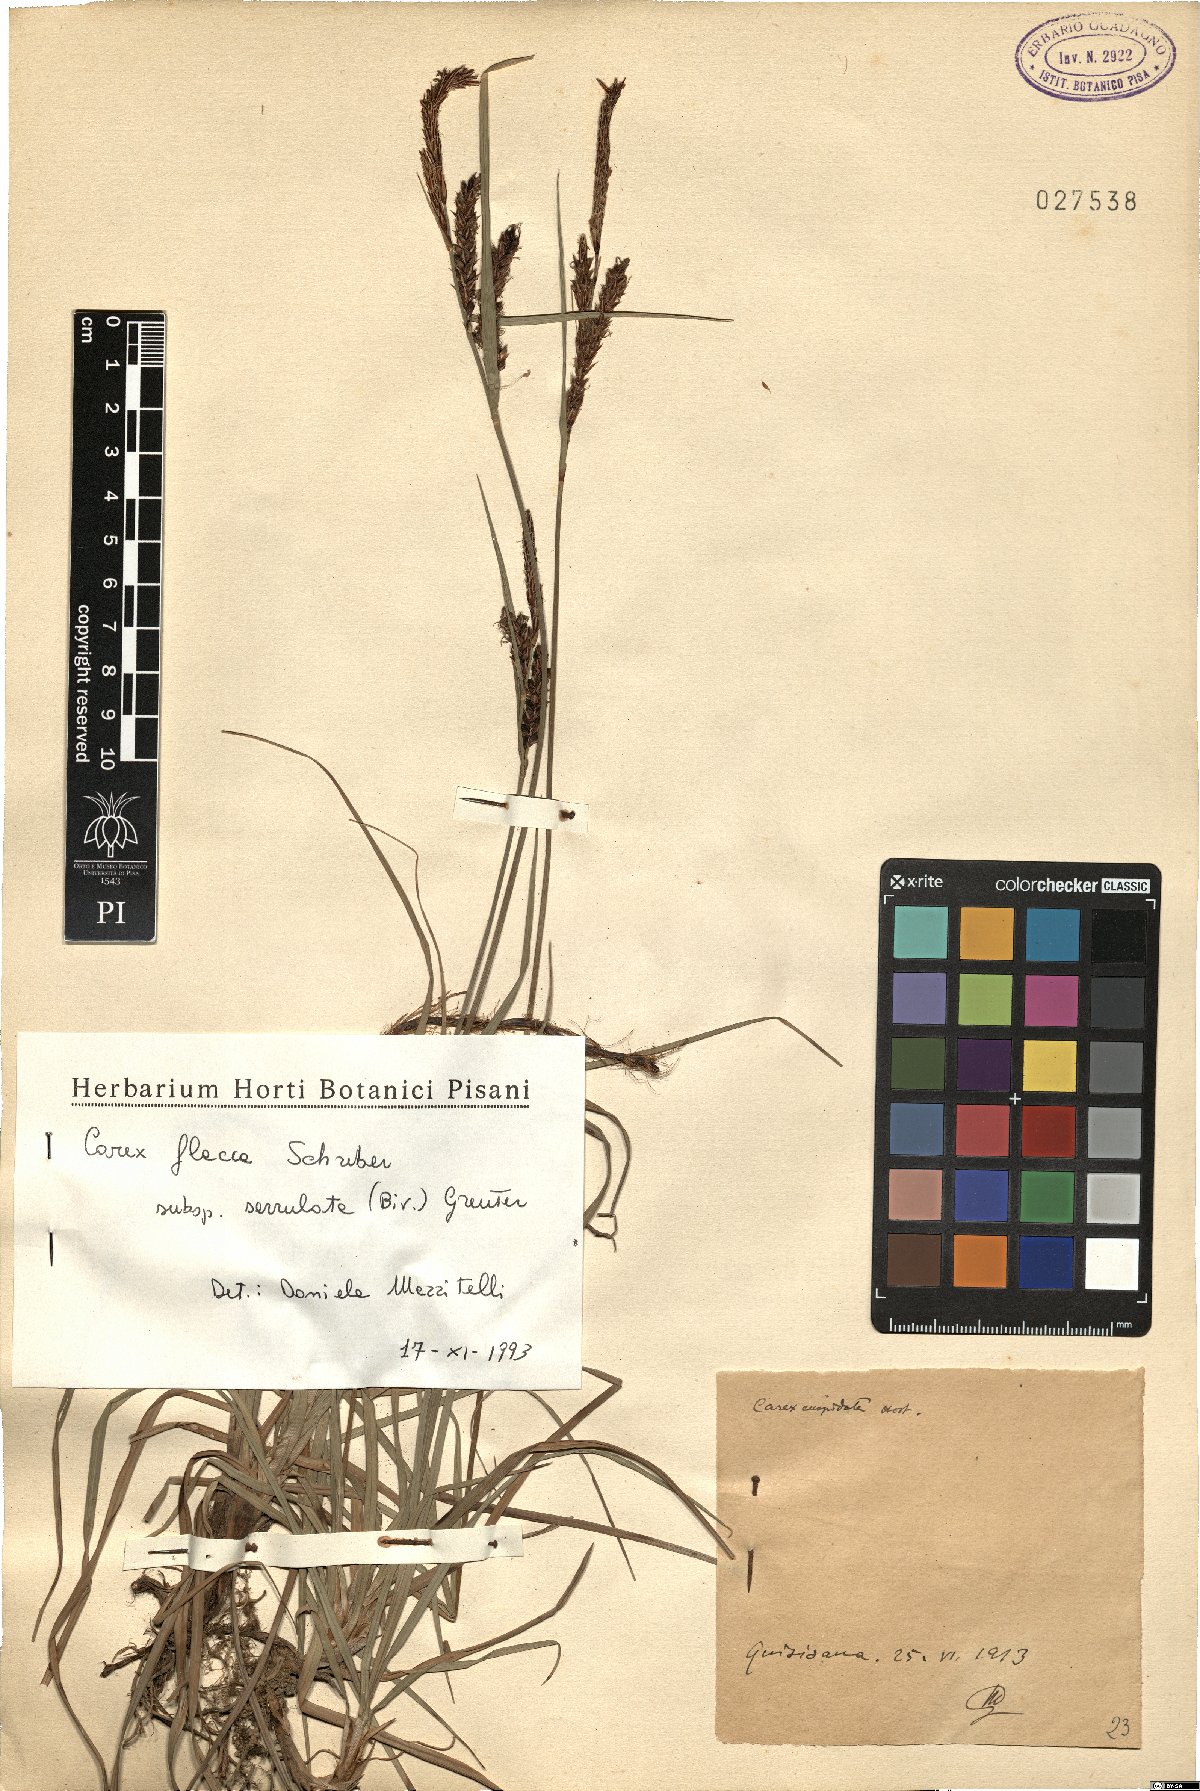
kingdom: Plantae
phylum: Tracheophyta
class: Liliopsida
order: Poales
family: Cyperaceae
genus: Carex
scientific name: Carex flacca
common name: Glaucous sedge
